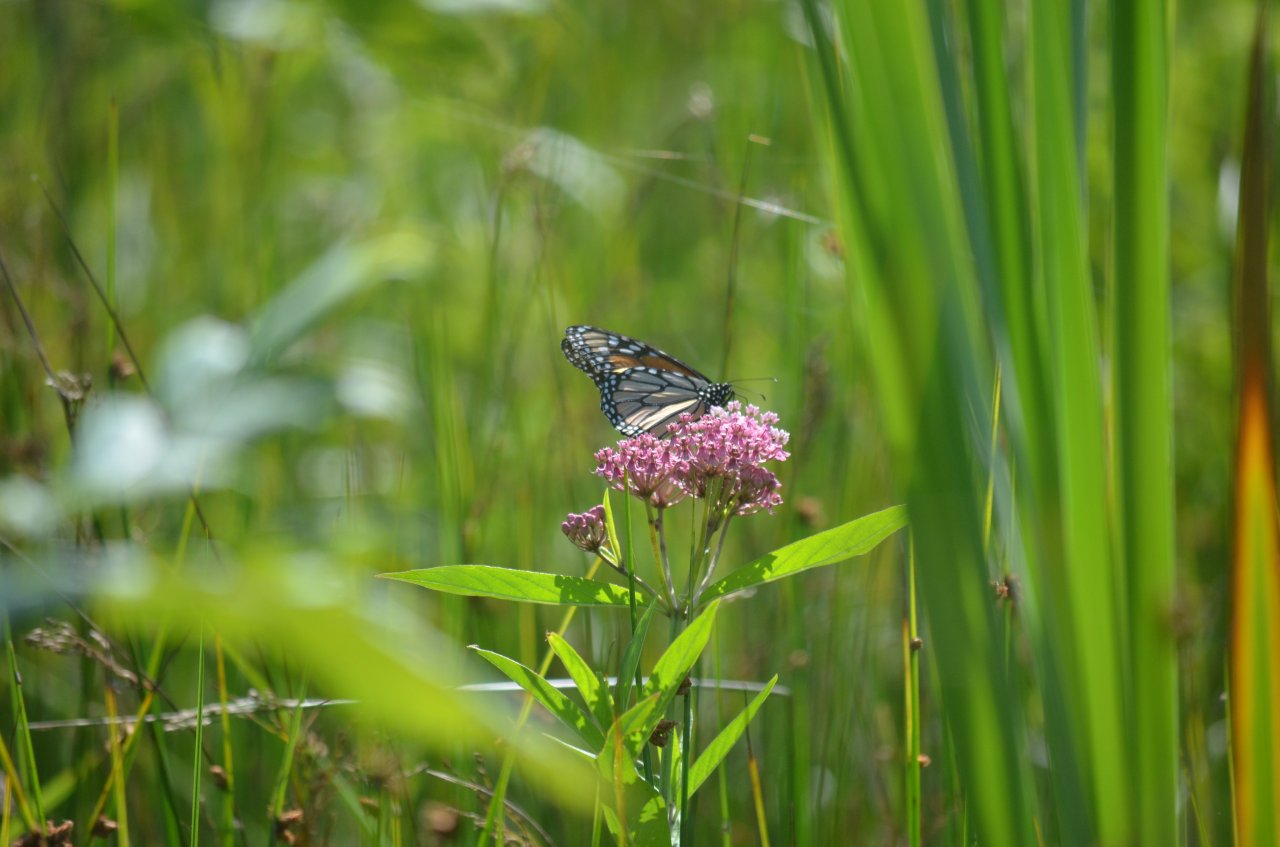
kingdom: Animalia
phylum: Arthropoda
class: Insecta
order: Lepidoptera
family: Nymphalidae
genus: Danaus
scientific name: Danaus plexippus
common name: Monarch
